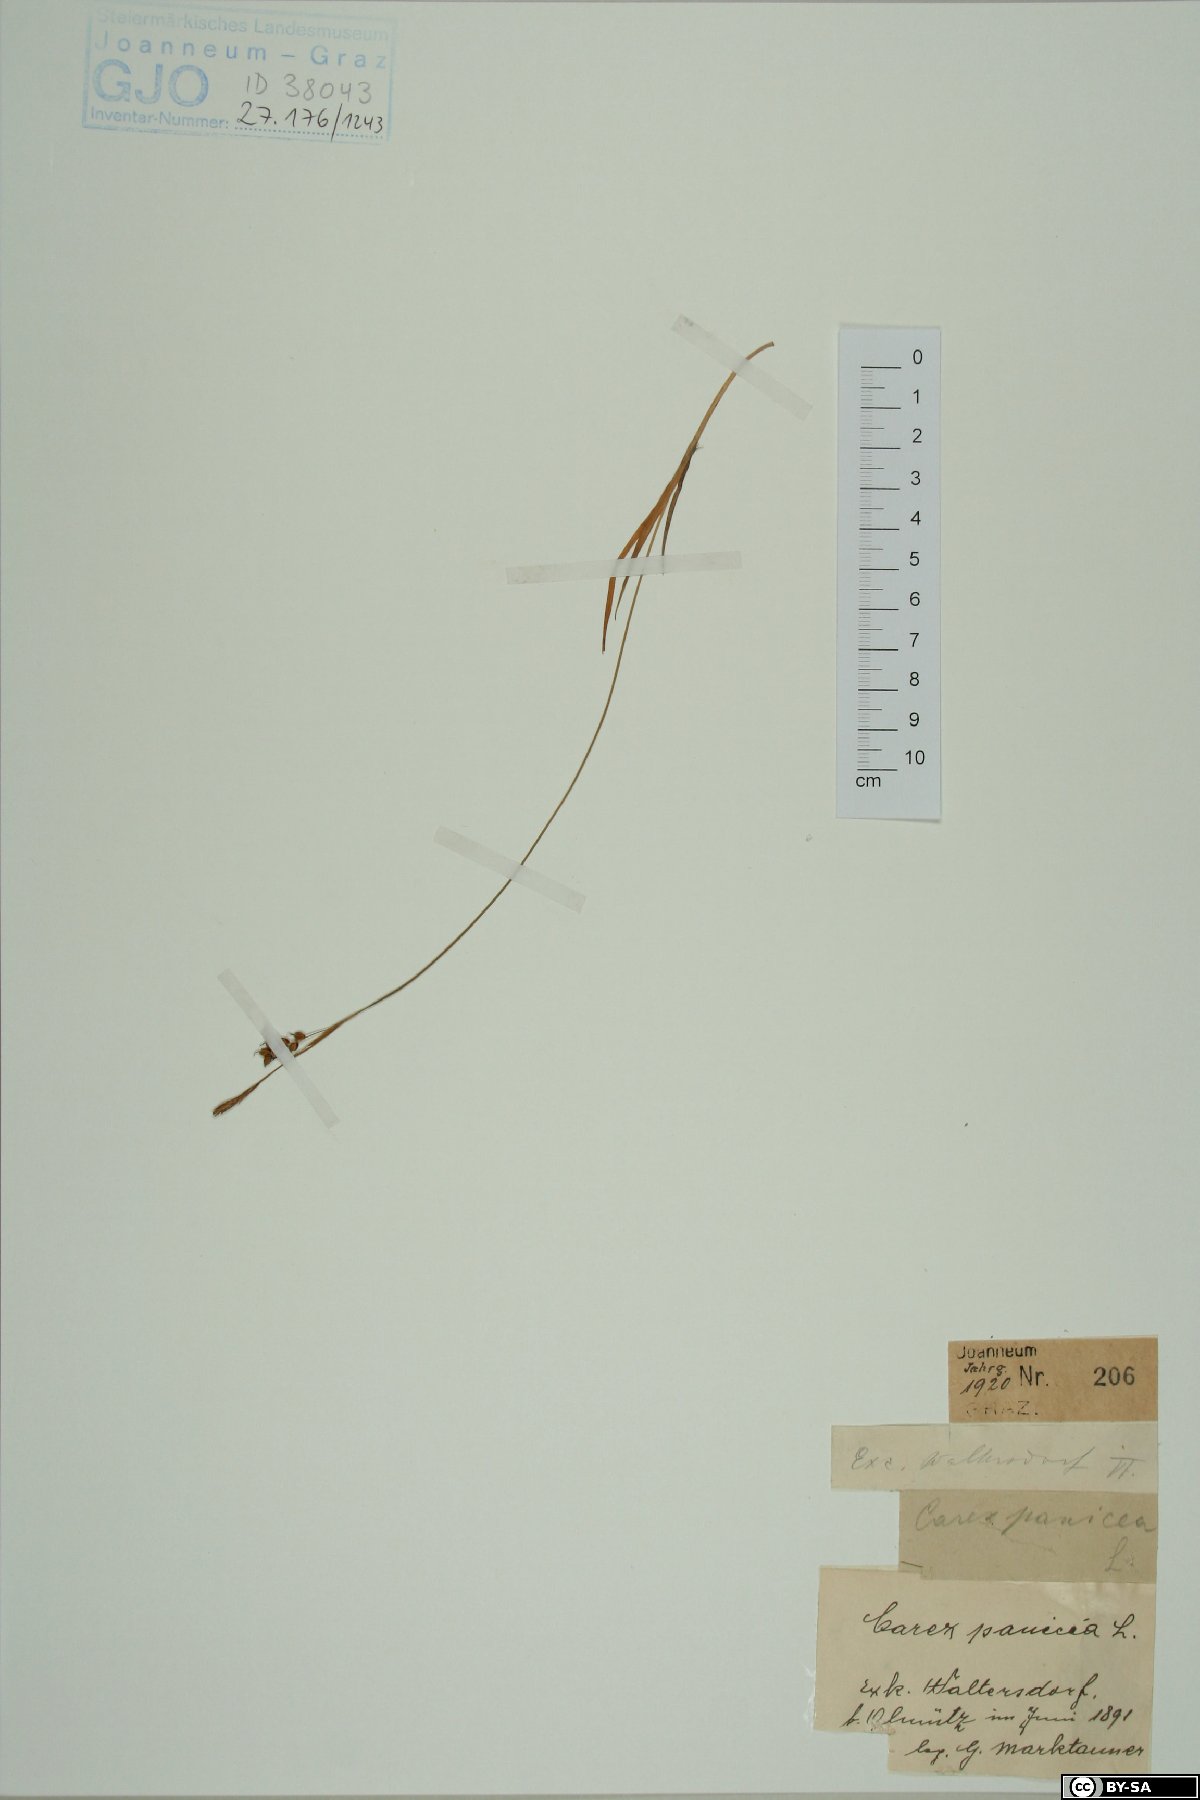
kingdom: Plantae
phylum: Tracheophyta
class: Liliopsida
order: Poales
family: Cyperaceae
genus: Carex
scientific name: Carex panicea
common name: Carnation sedge
